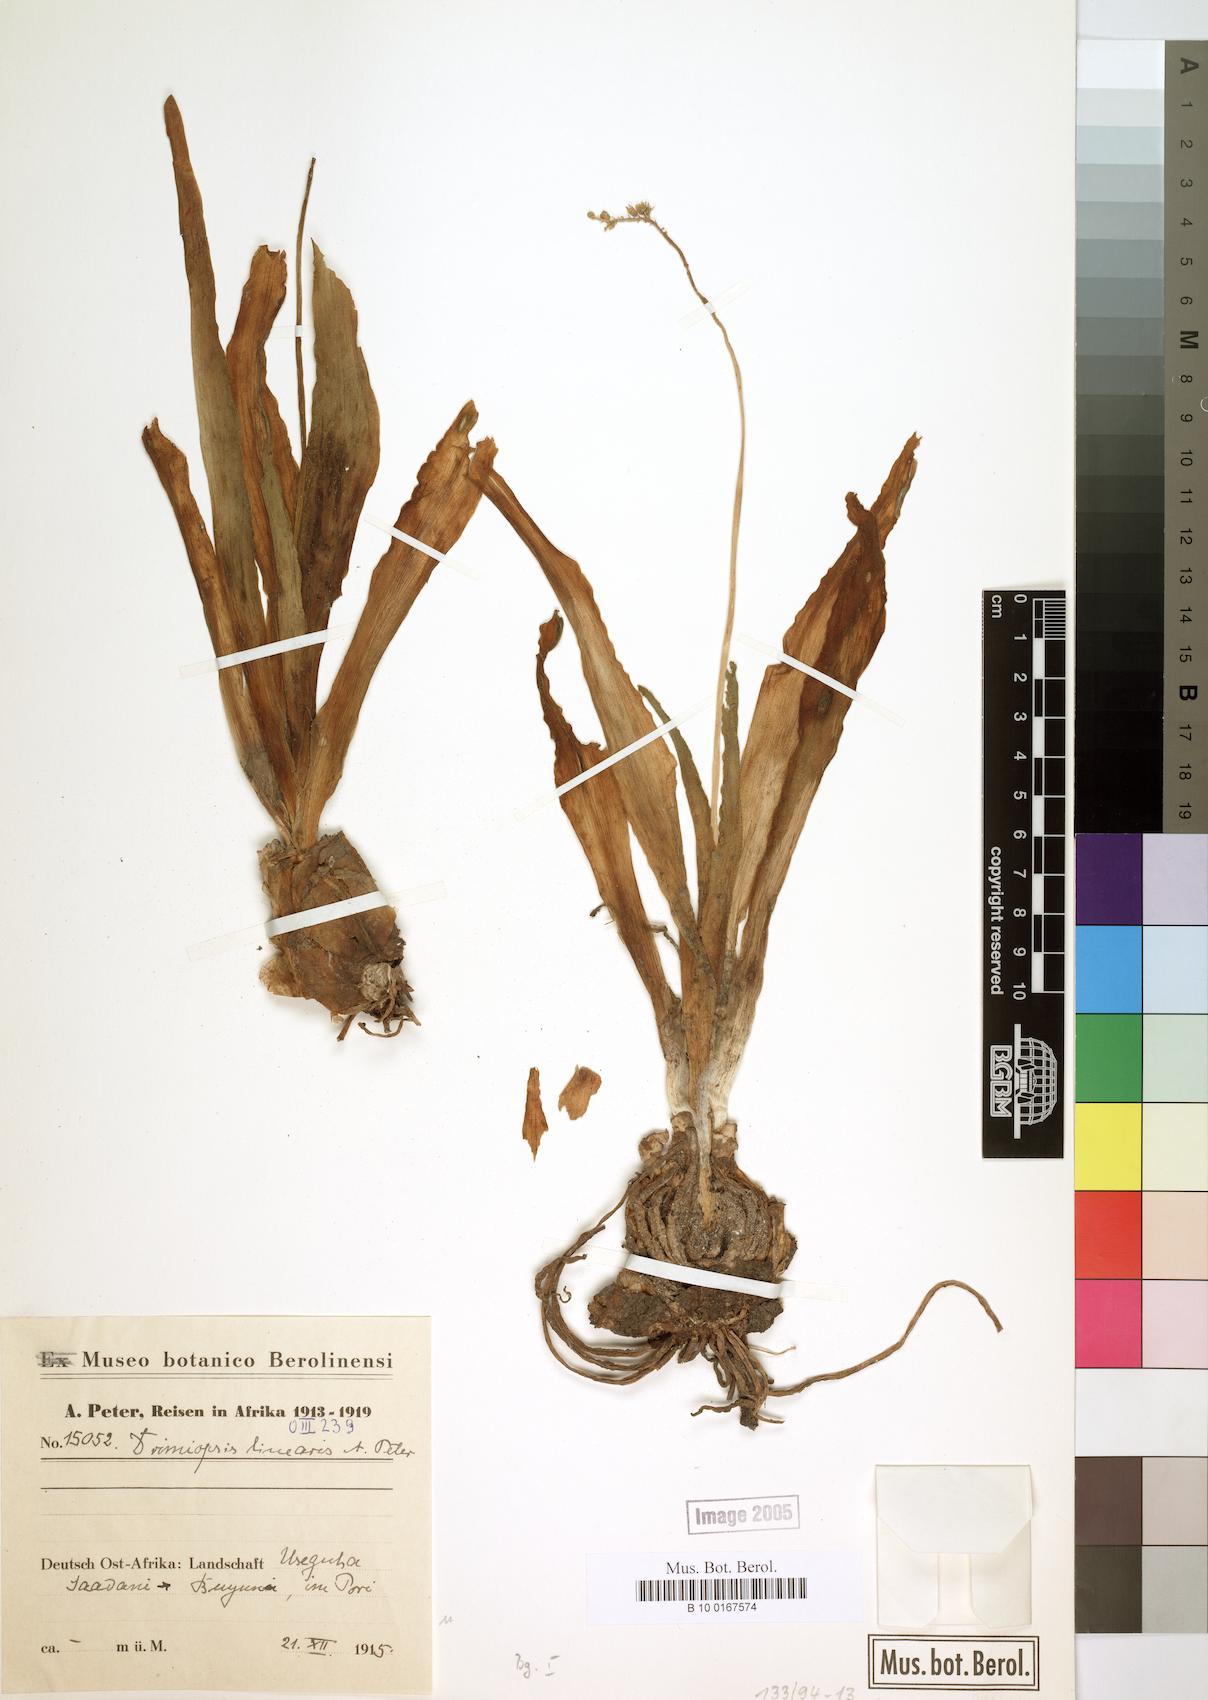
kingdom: Plantae
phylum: Tracheophyta
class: Liliopsida
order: Asparagales
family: Asparagaceae
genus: Drimiopsis
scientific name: Drimiopsis
